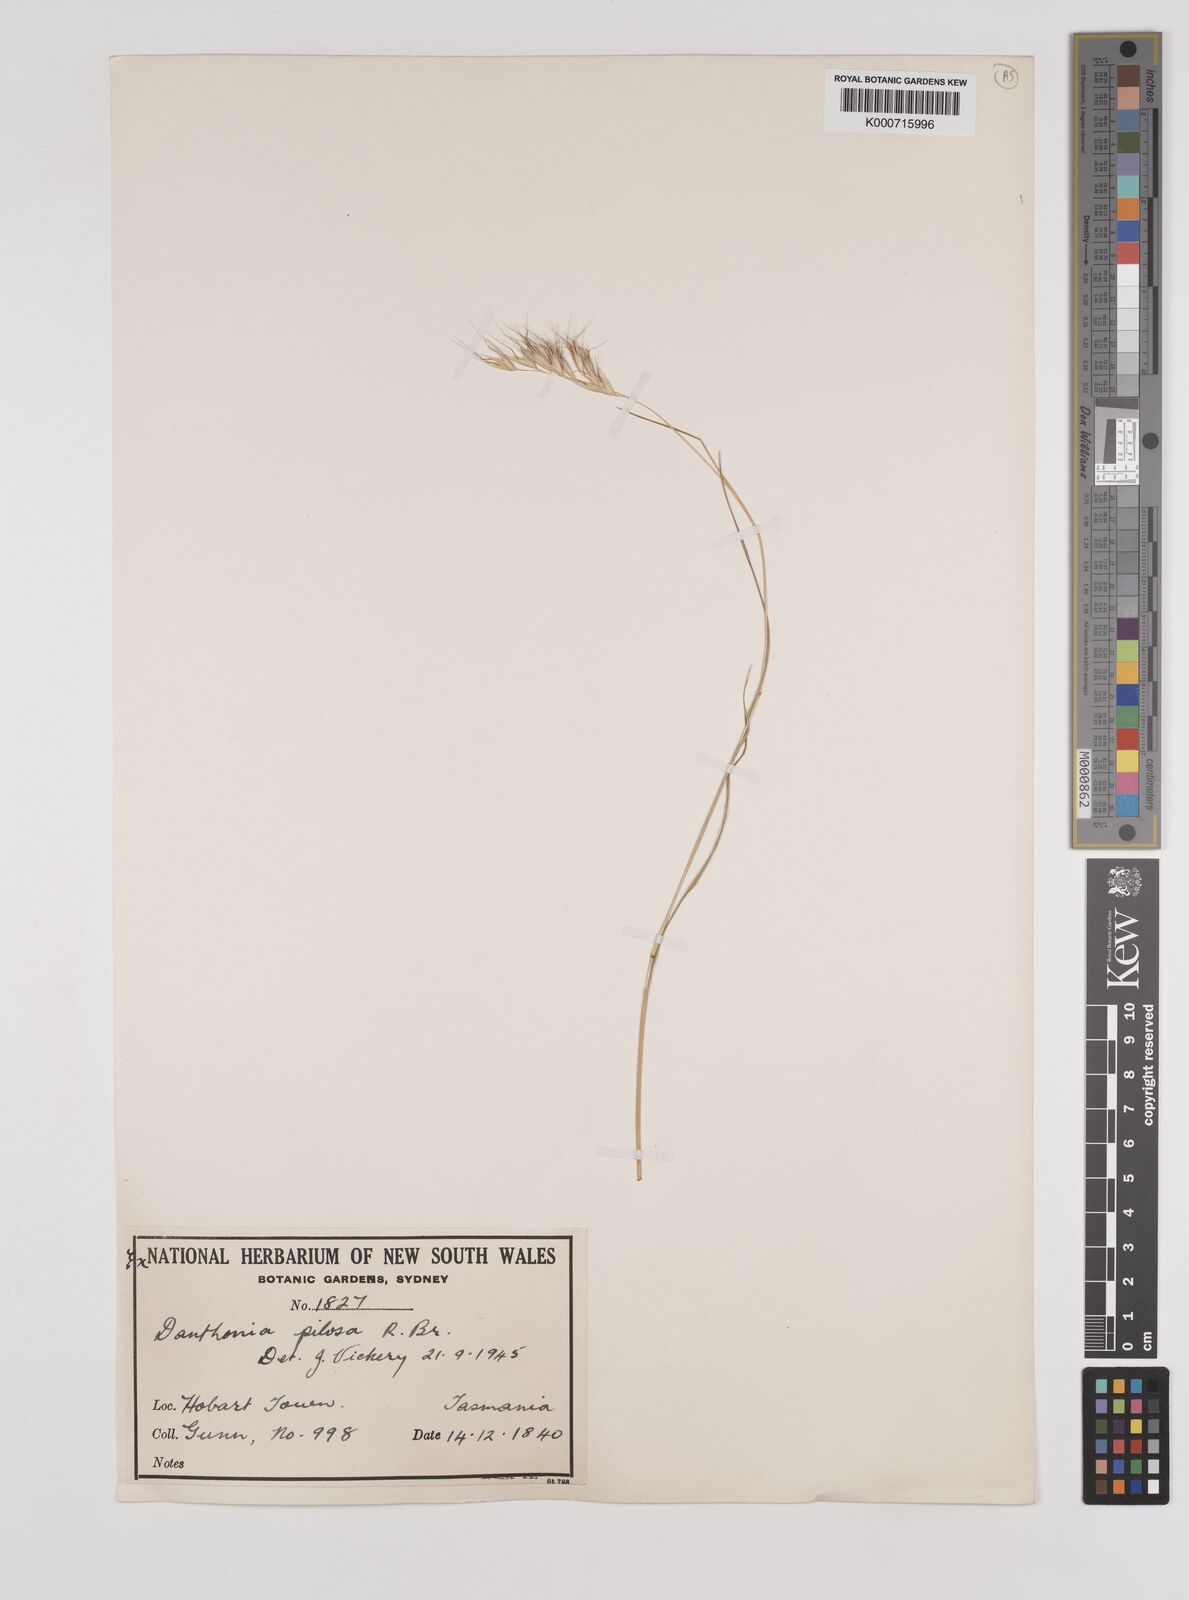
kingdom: Plantae
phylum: Tracheophyta
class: Liliopsida
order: Poales
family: Poaceae
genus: Rytidosperma
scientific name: Rytidosperma pilosum
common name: Hairy wallaby grass
